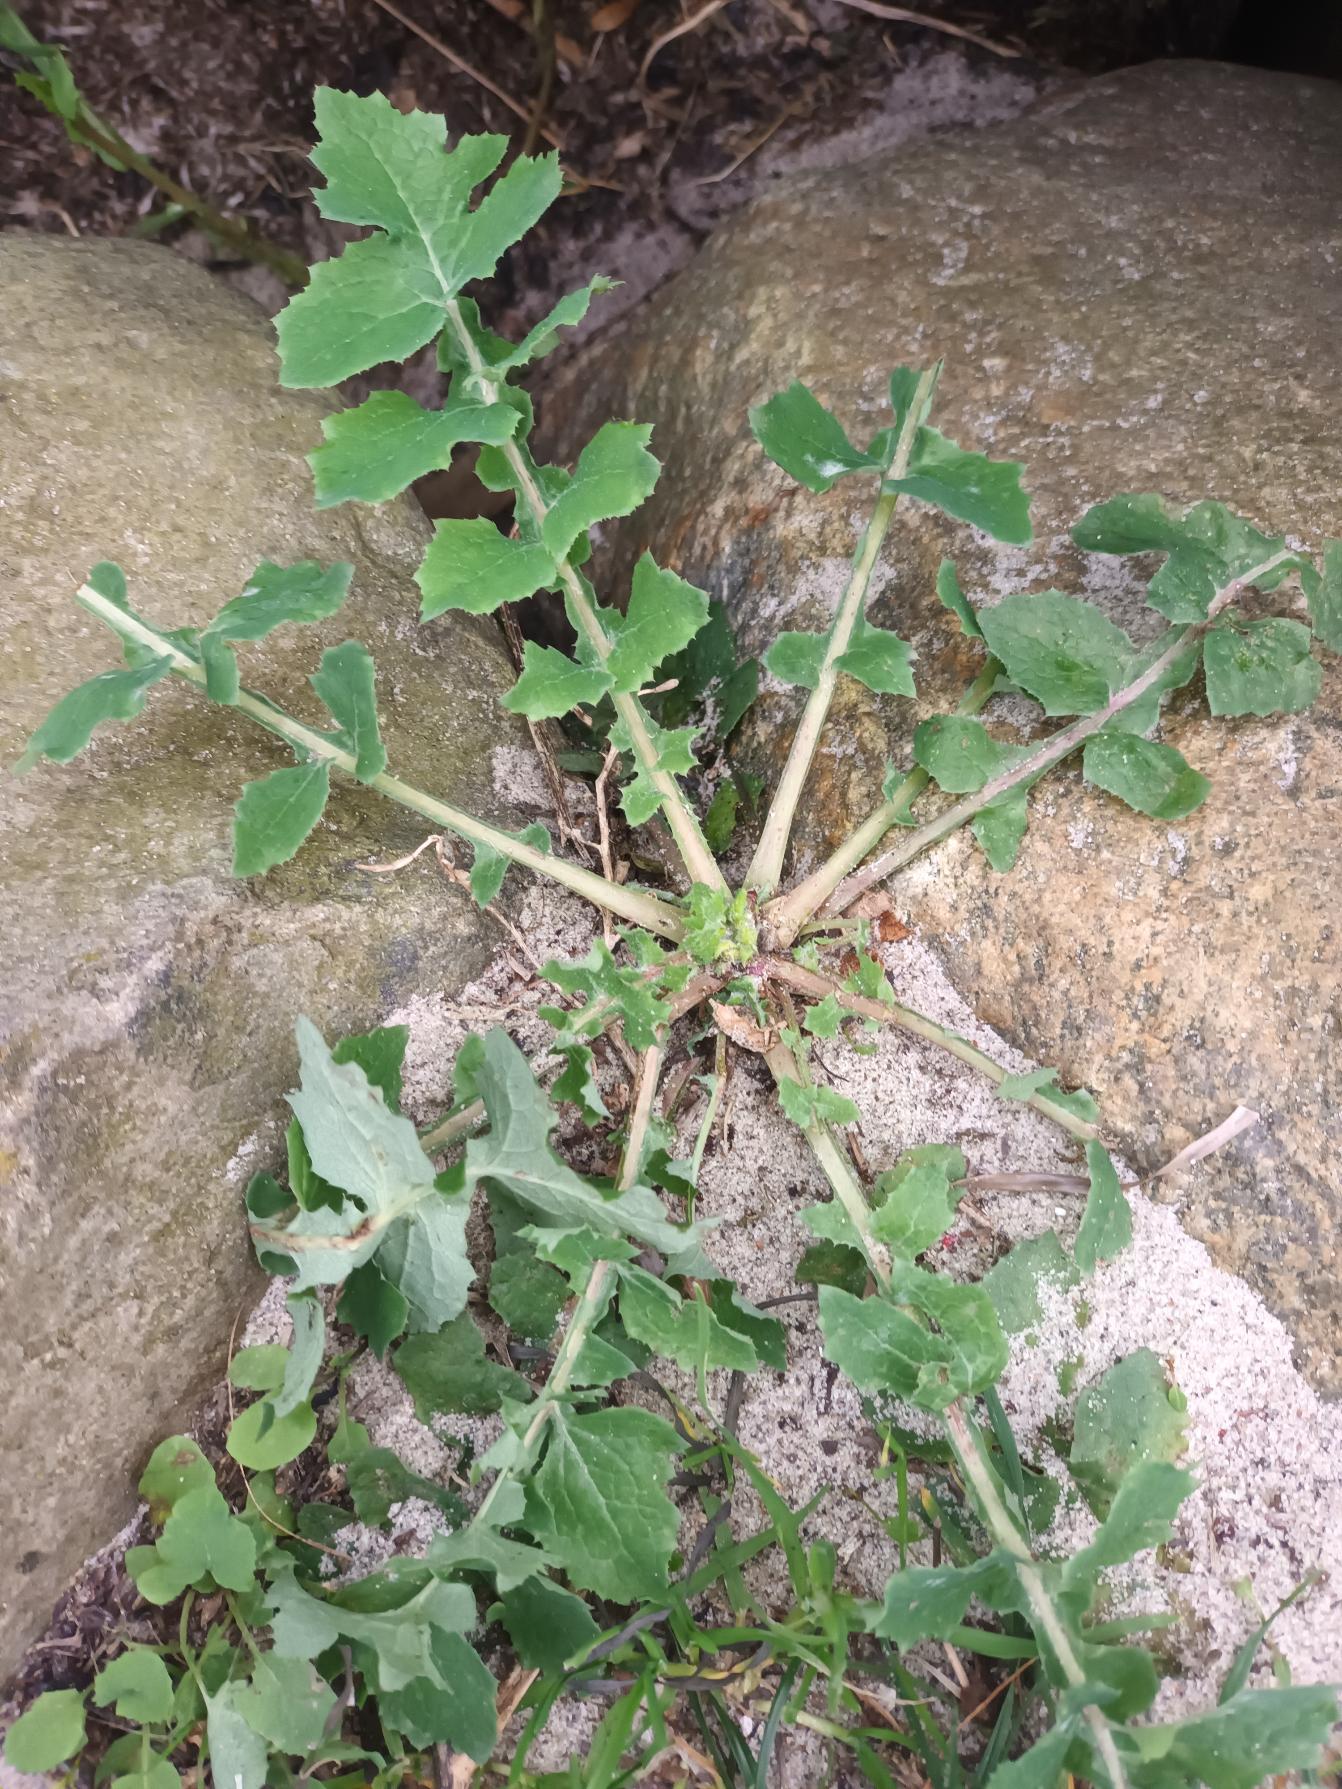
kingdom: Plantae
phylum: Tracheophyta
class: Magnoliopsida
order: Asterales
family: Asteraceae
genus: Sonchus
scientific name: Sonchus oleraceus
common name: Almindelig svinemælk
